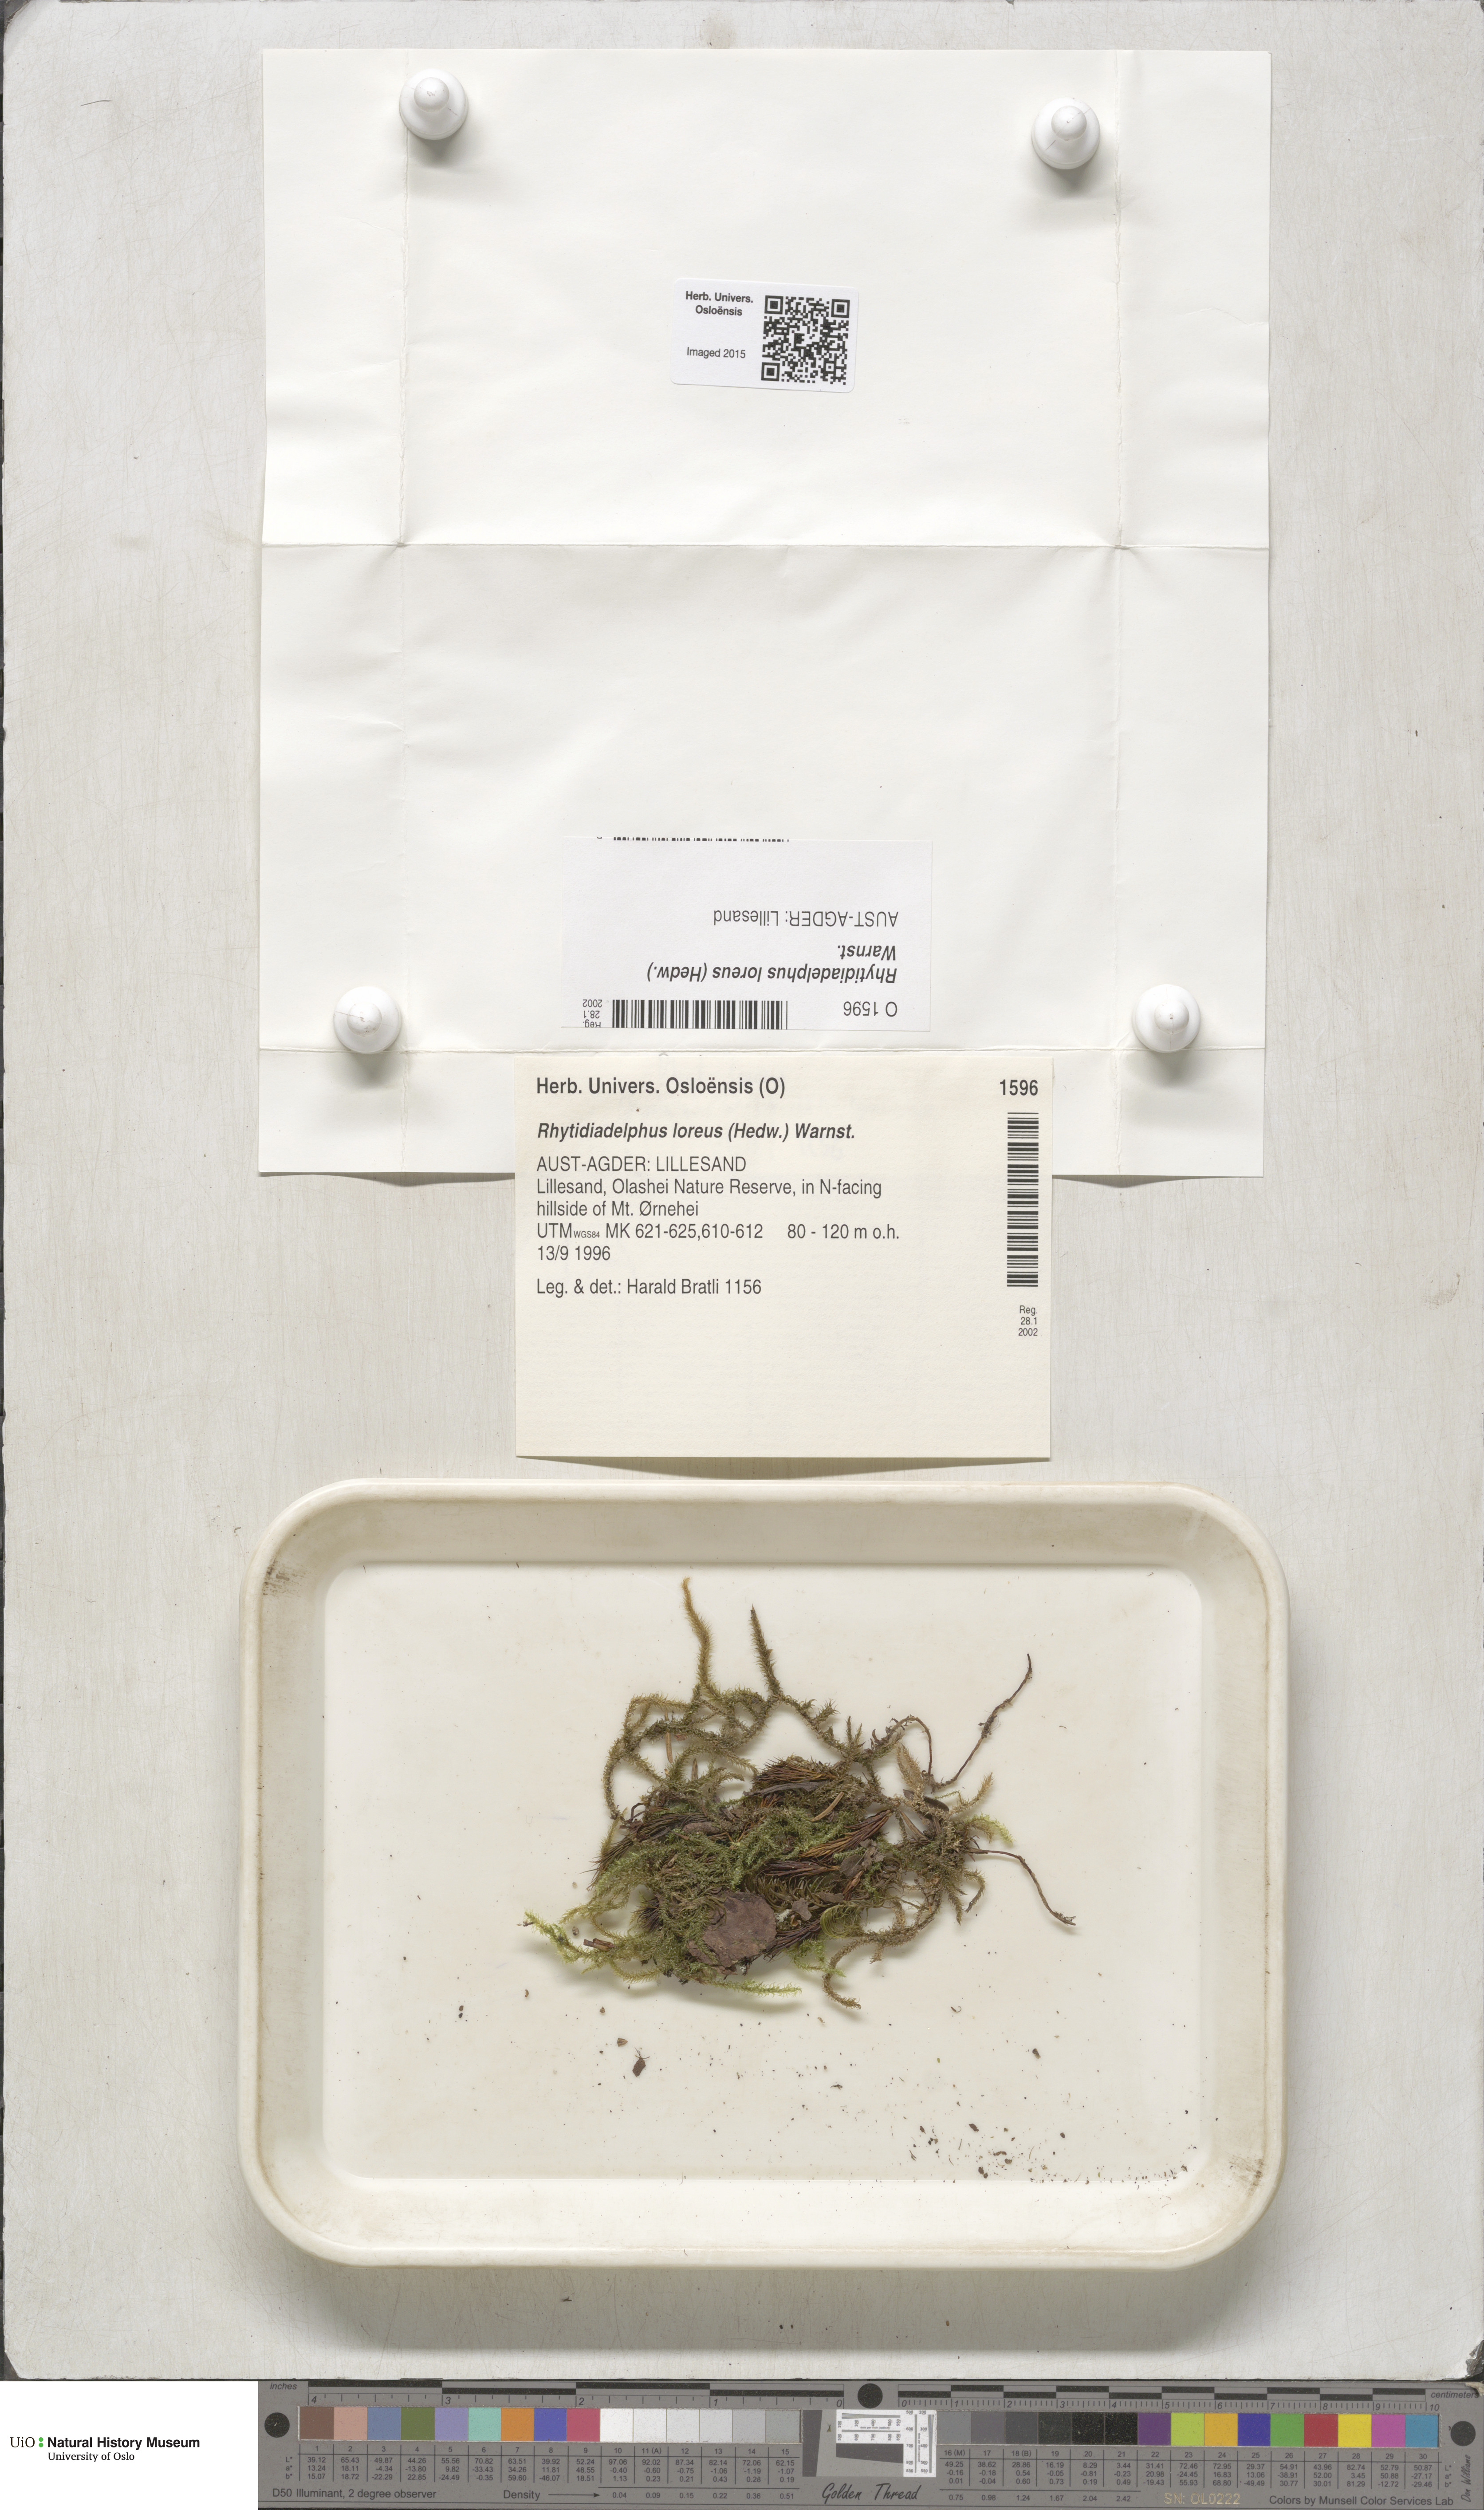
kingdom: Plantae
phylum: Bryophyta
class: Bryopsida
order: Hypnales
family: Hylocomiaceae
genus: Rhytidiadelphus
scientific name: Rhytidiadelphus loreus
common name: Lanky moss
